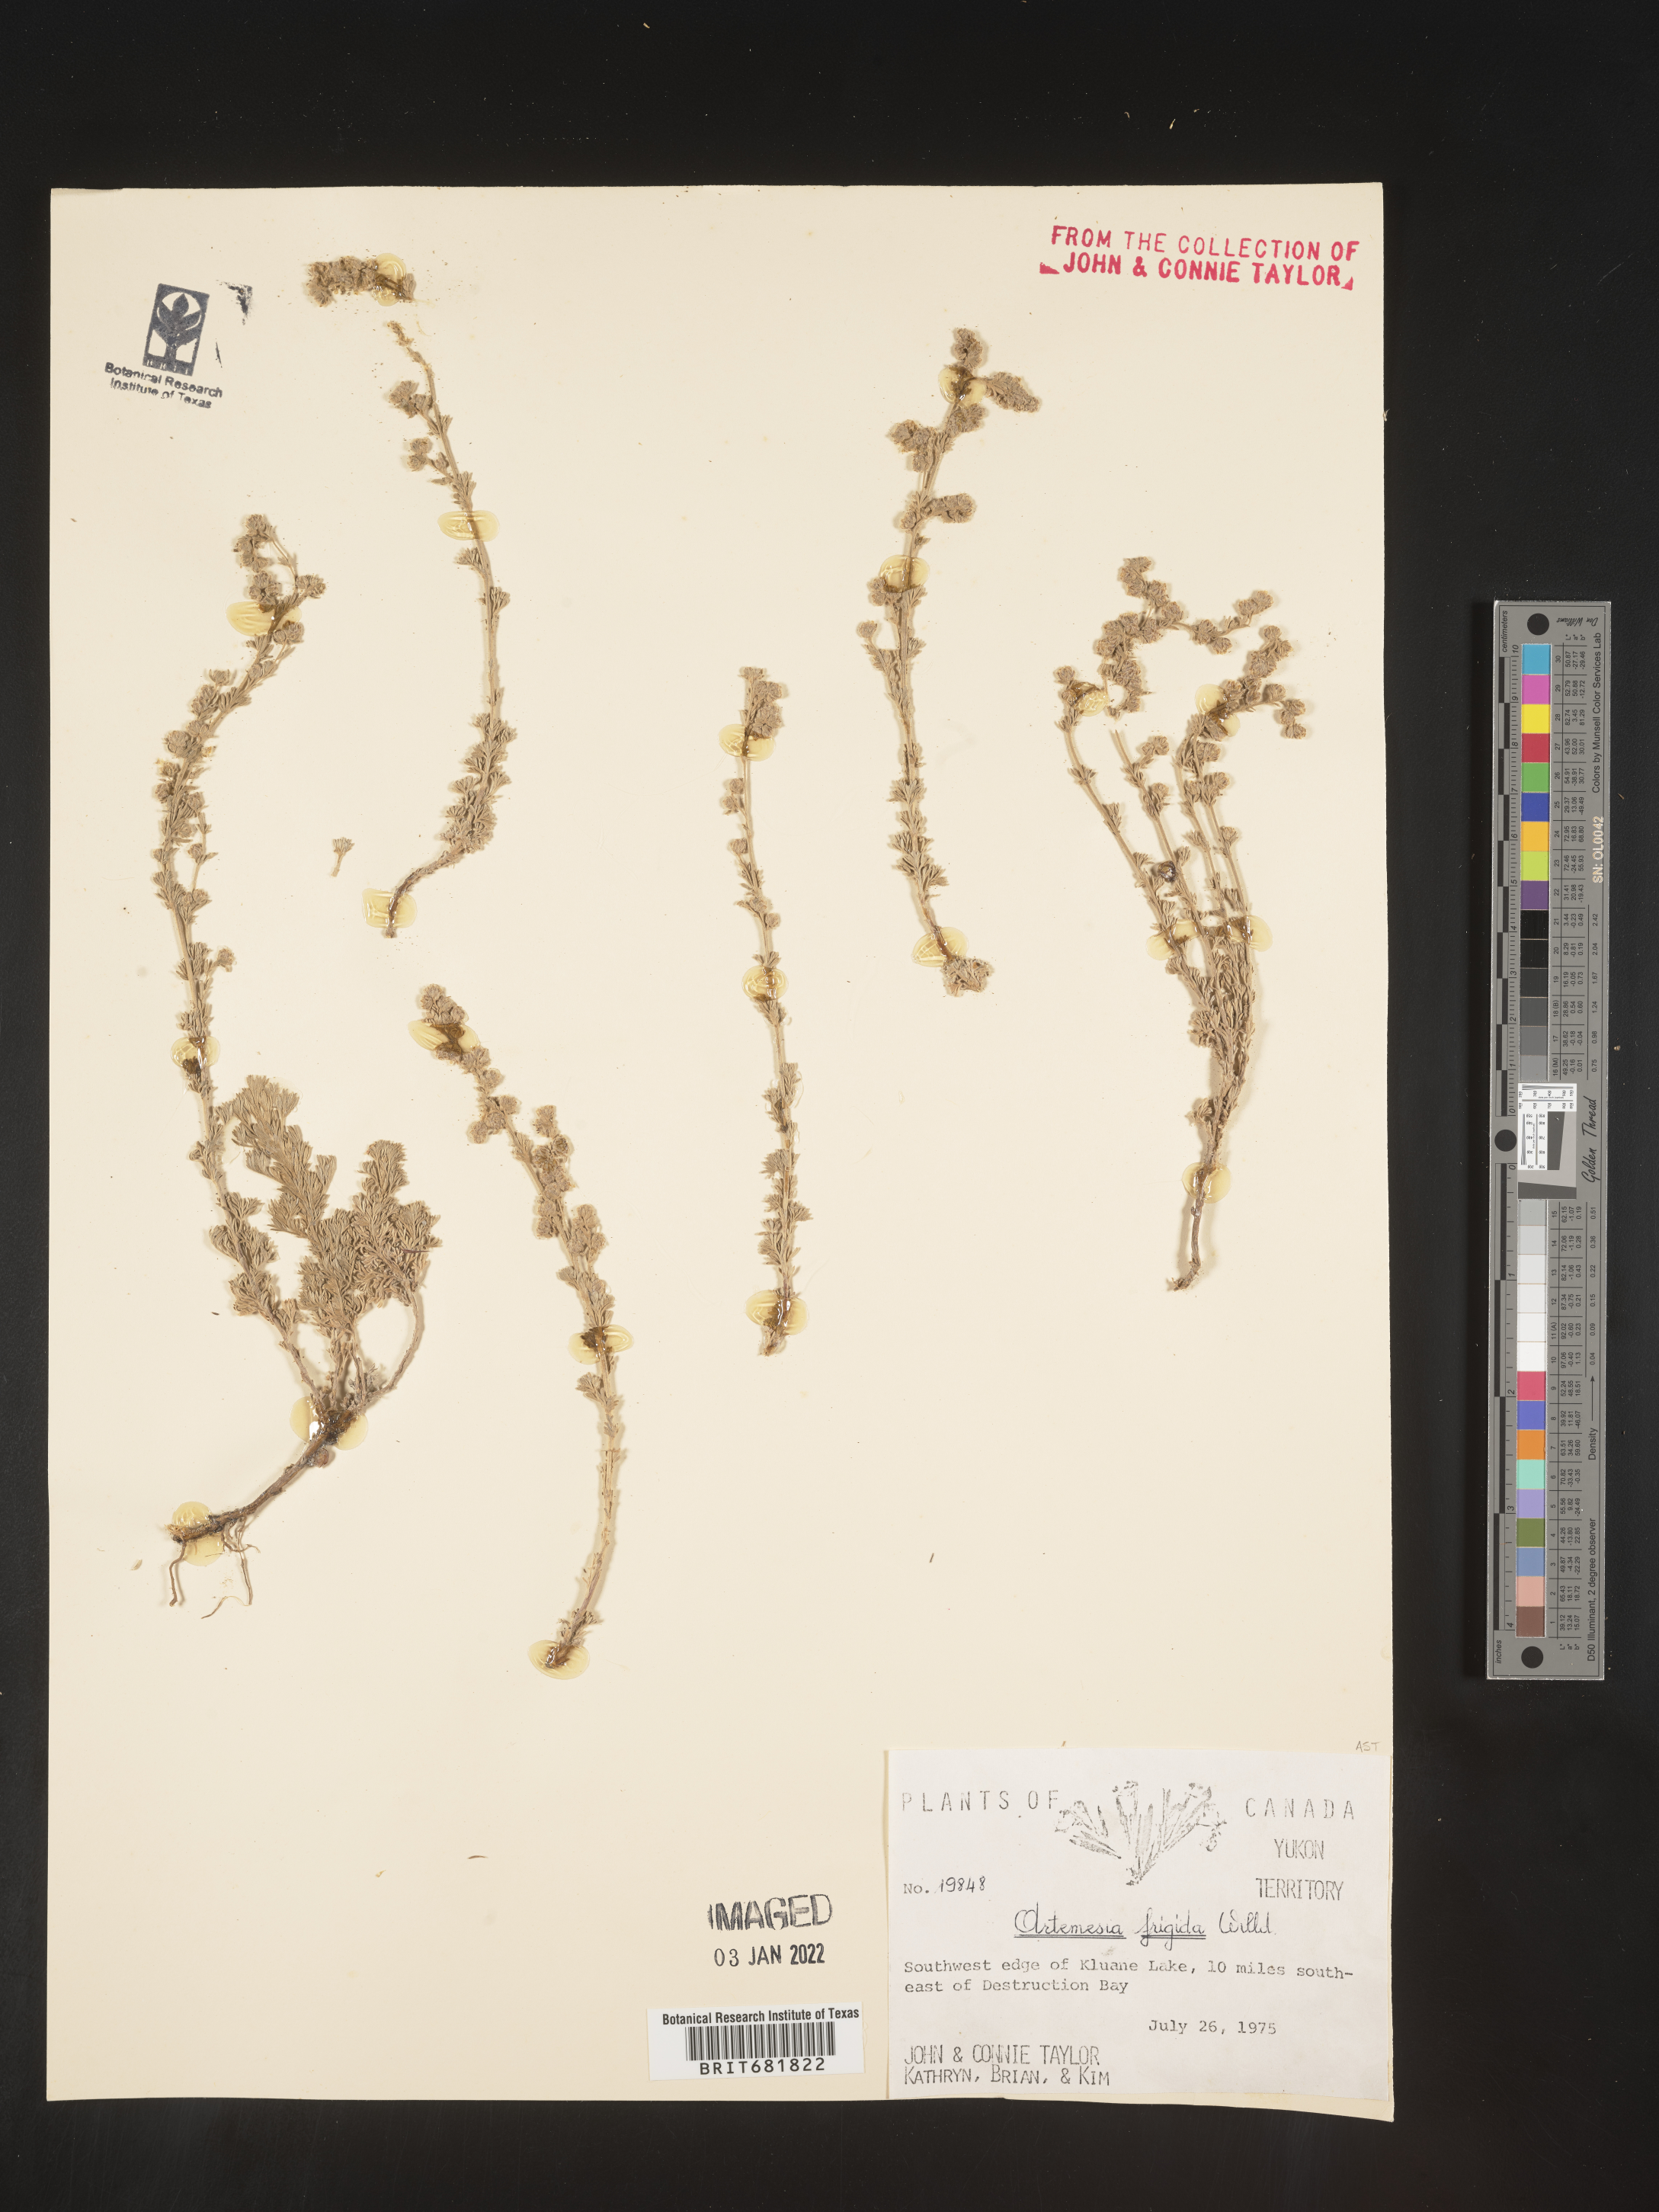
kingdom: Plantae
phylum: Tracheophyta
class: Magnoliopsida
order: Asterales
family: Asteraceae
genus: Artemisia
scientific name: Artemisia frigida
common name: Prairie sagewort
